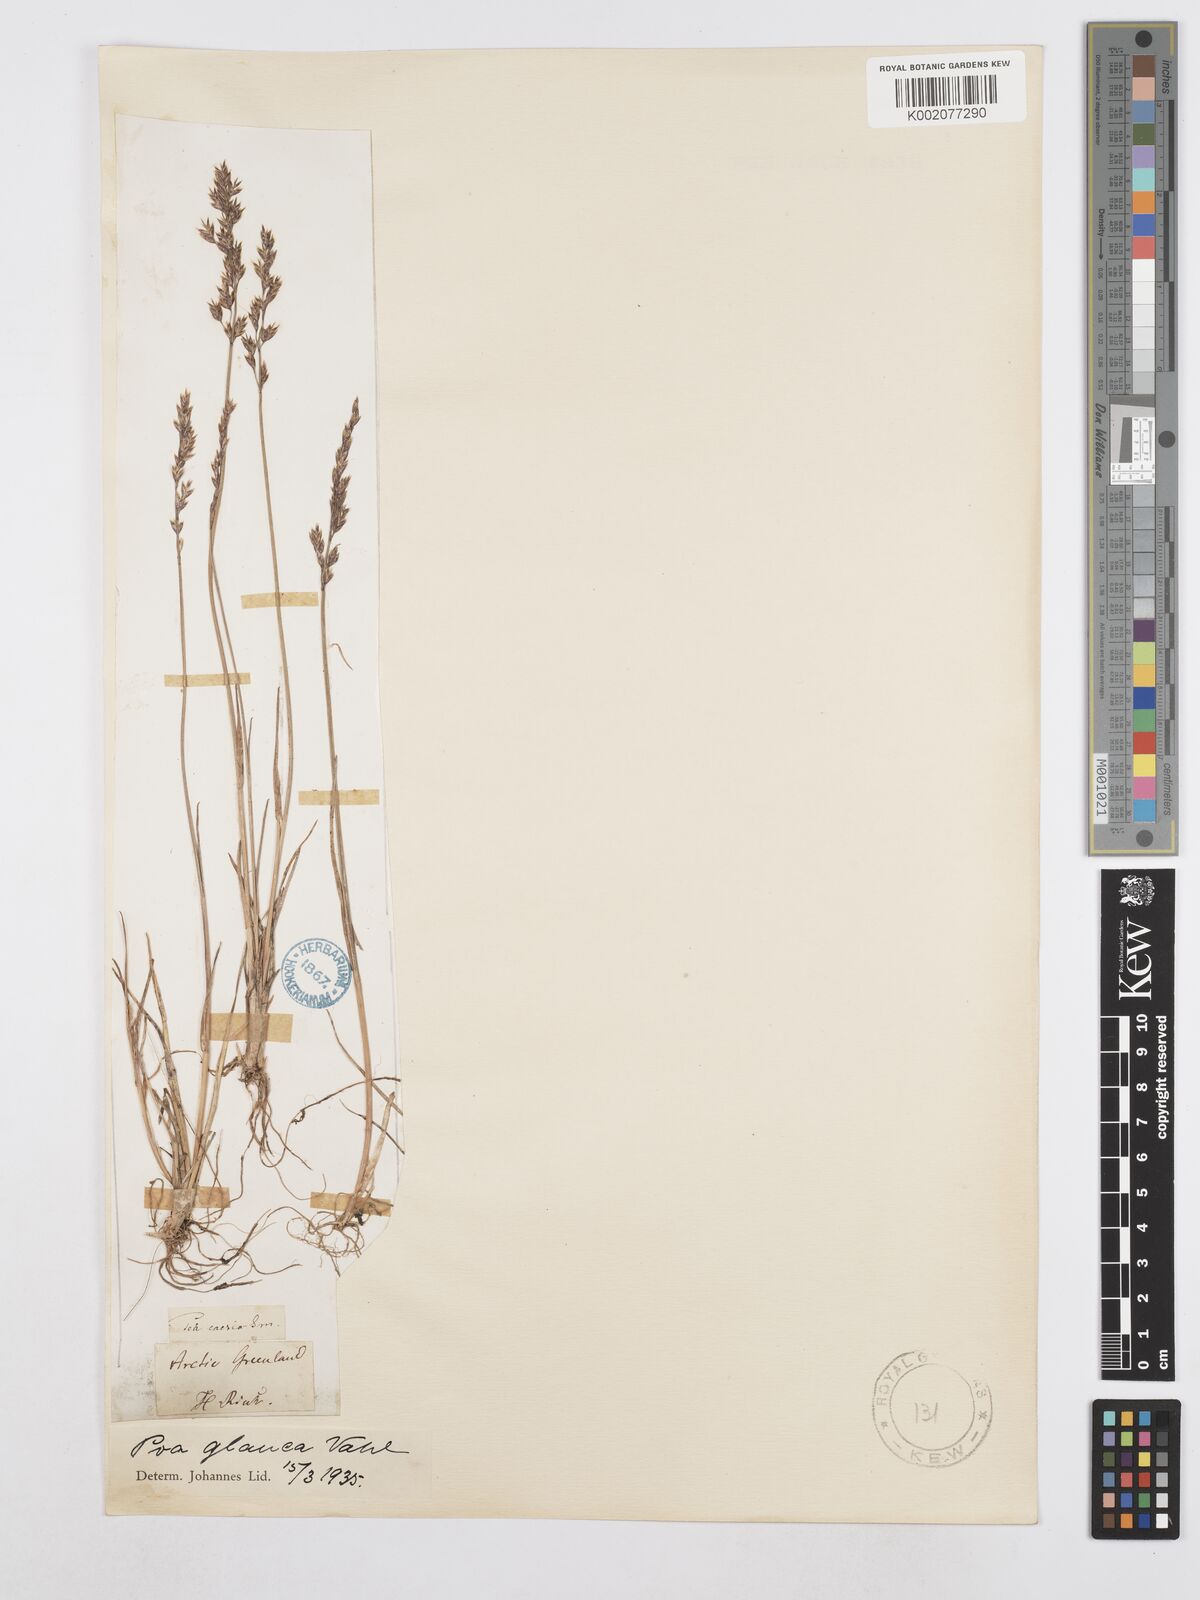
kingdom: Plantae
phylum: Tracheophyta
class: Liliopsida
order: Poales
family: Poaceae
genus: Poa
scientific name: Poa glauca
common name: Glaucous bluegrass
